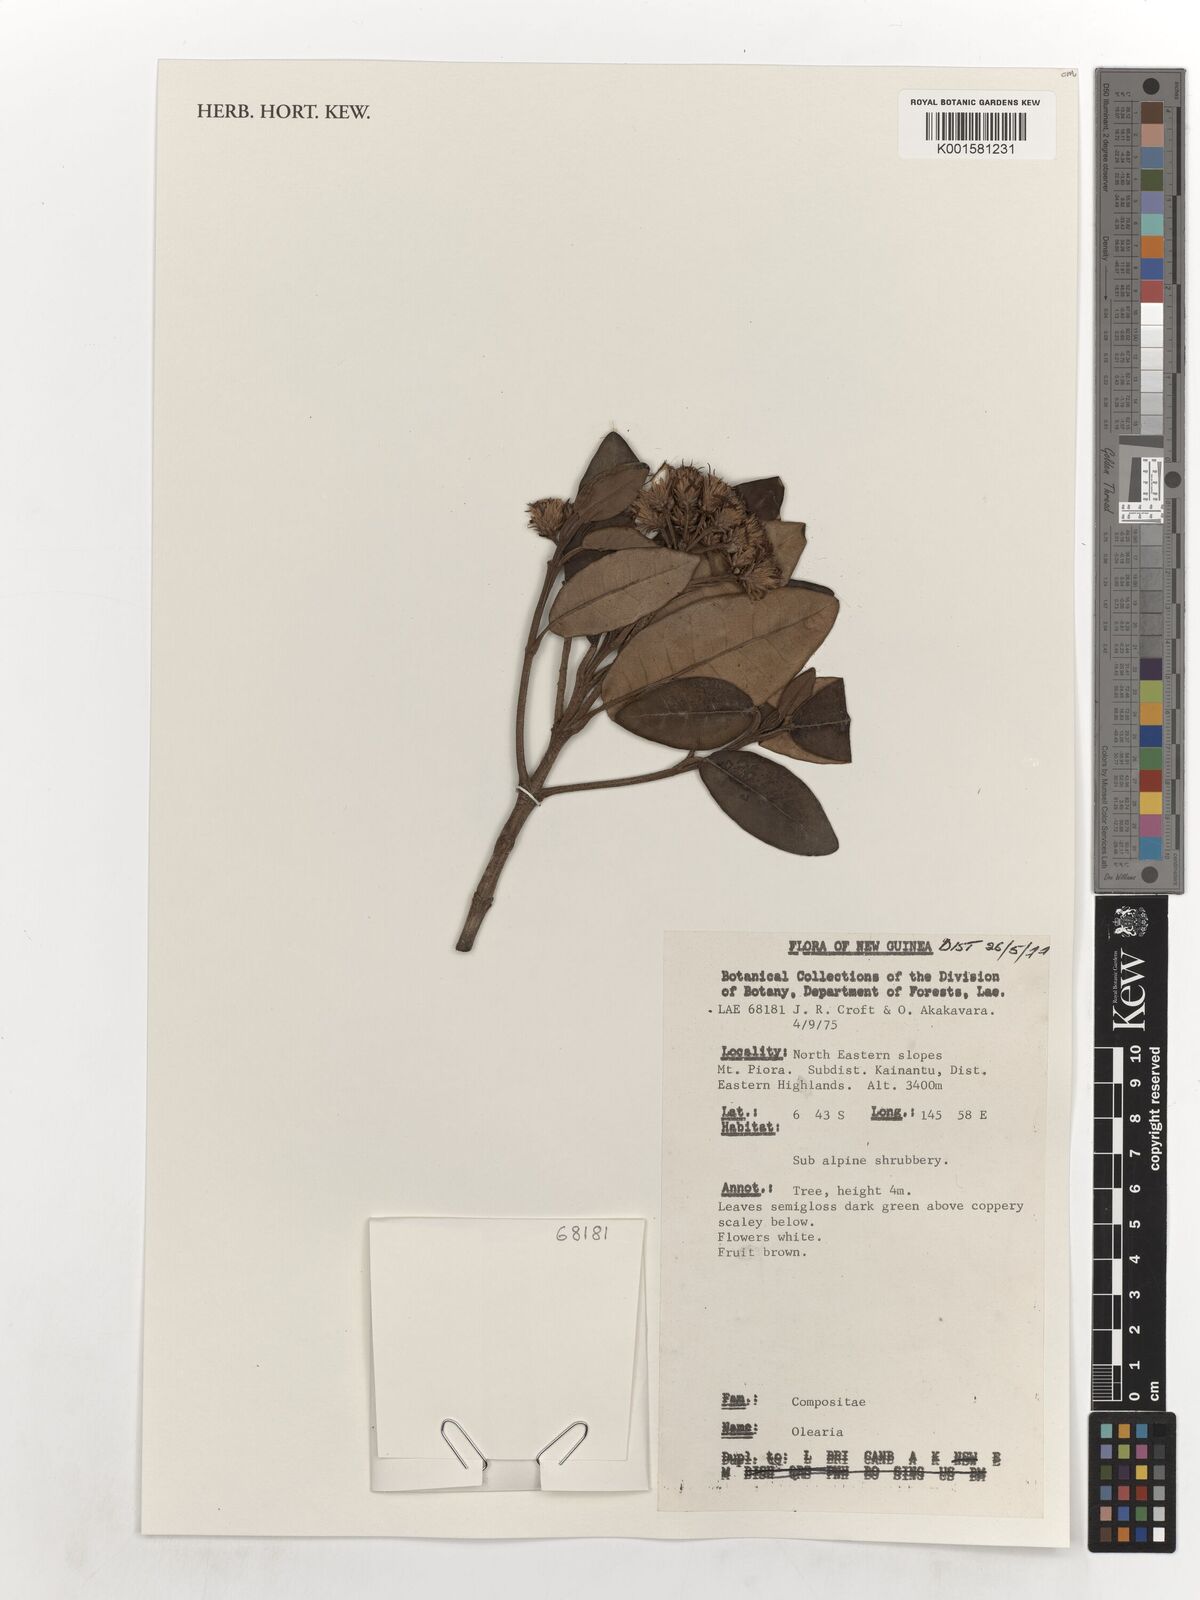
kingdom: Plantae
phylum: Tracheophyta
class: Magnoliopsida
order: Asterales
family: Asteraceae
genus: Olearia
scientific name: Olearia
